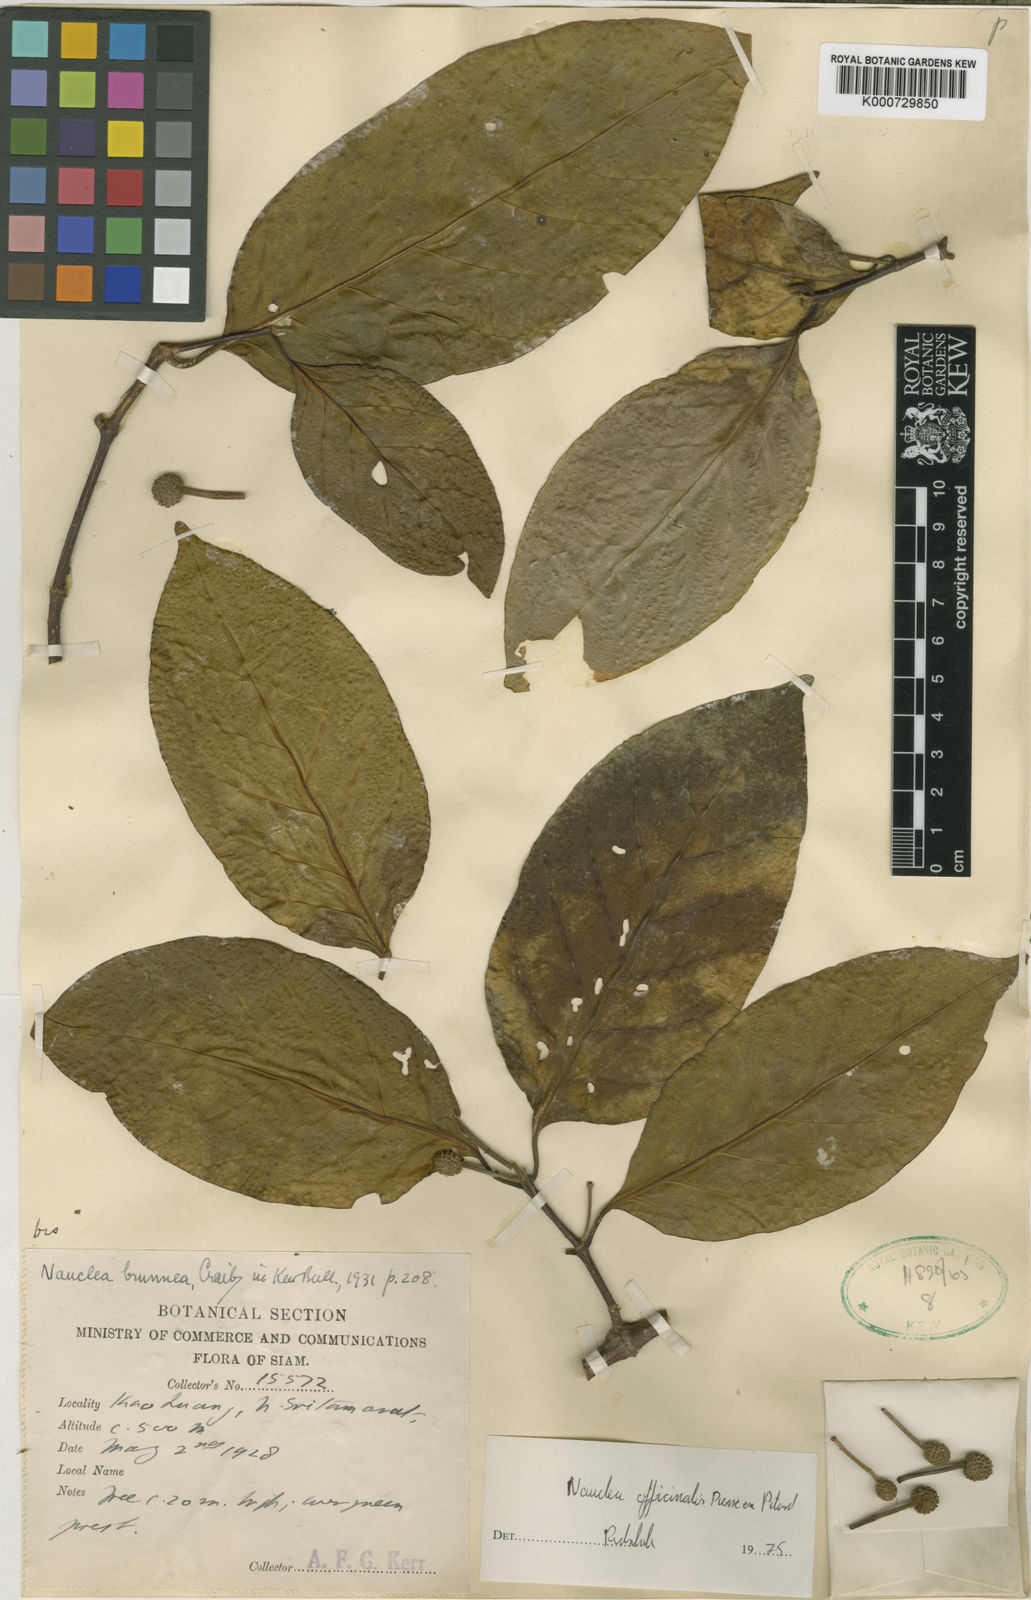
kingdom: Plantae
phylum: Tracheophyta
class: Magnoliopsida
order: Gentianales
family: Rubiaceae
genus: Nauclea
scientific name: Nauclea officinalis
